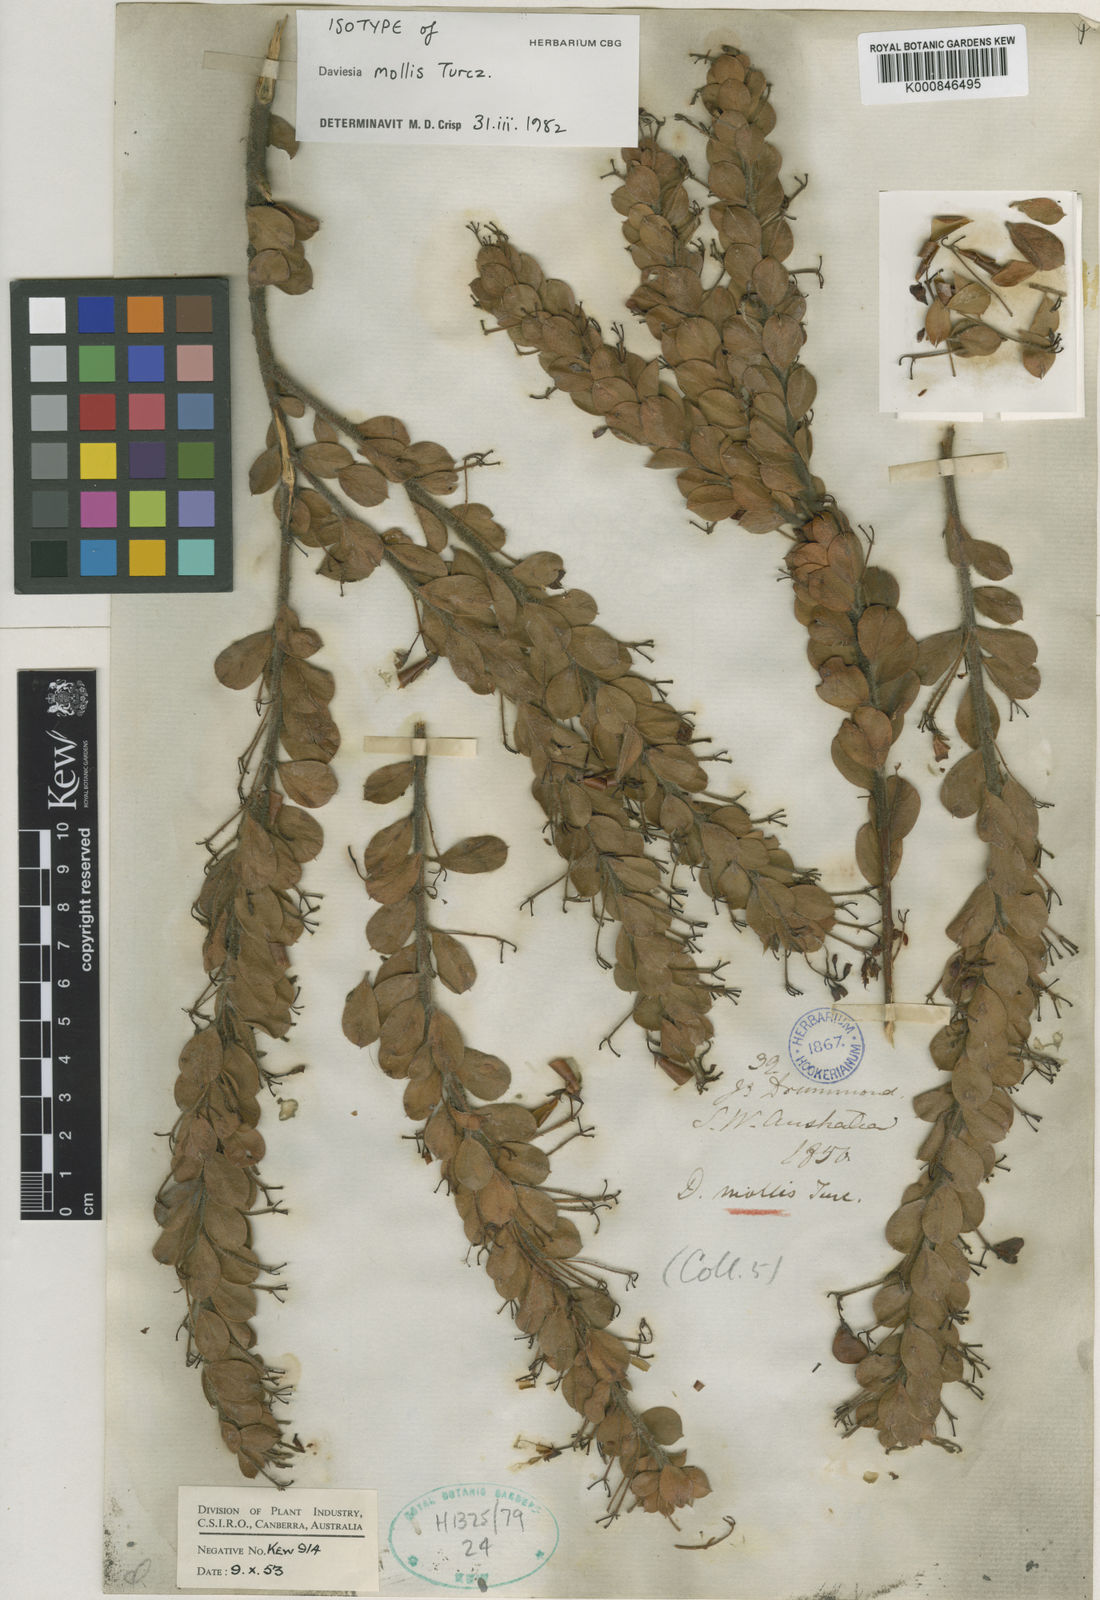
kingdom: Plantae
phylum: Tracheophyta
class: Magnoliopsida
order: Fabales
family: Fabaceae
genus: Daviesia
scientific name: Daviesia mollis
